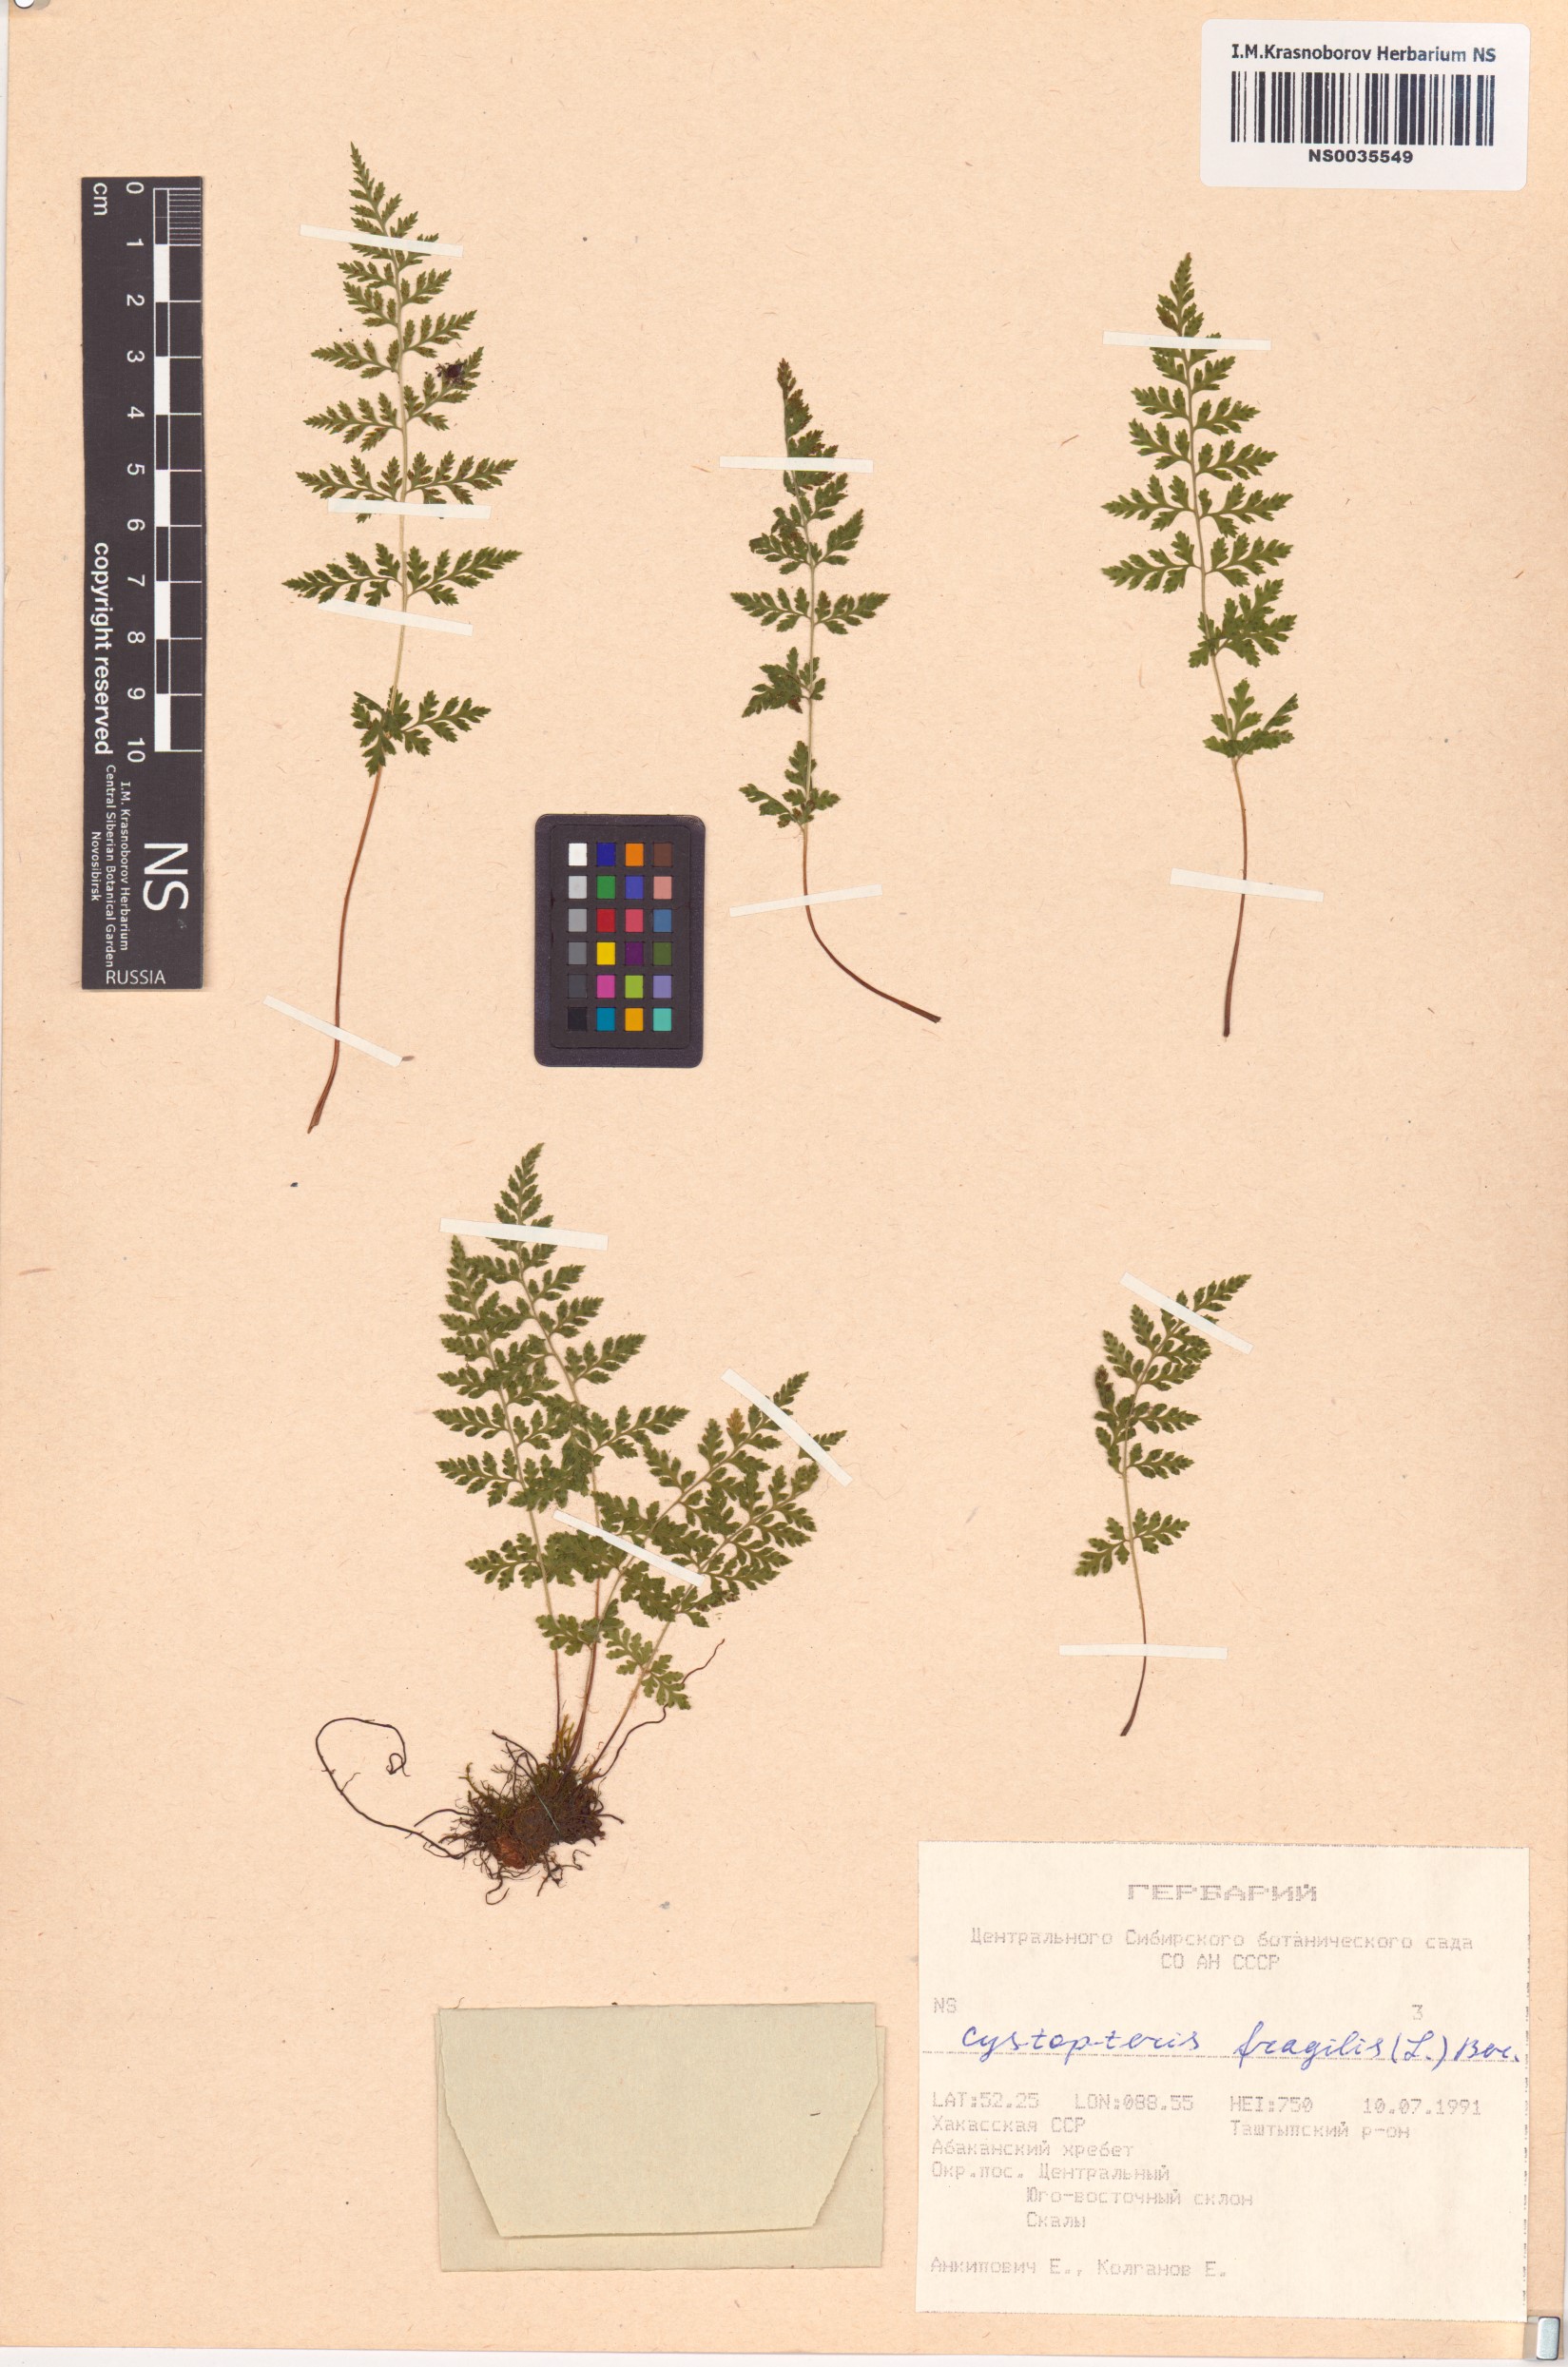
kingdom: Plantae
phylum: Tracheophyta
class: Polypodiopsida
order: Polypodiales
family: Cystopteridaceae
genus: Cystopteris
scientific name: Cystopteris fragilis
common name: Brittle bladder fern
